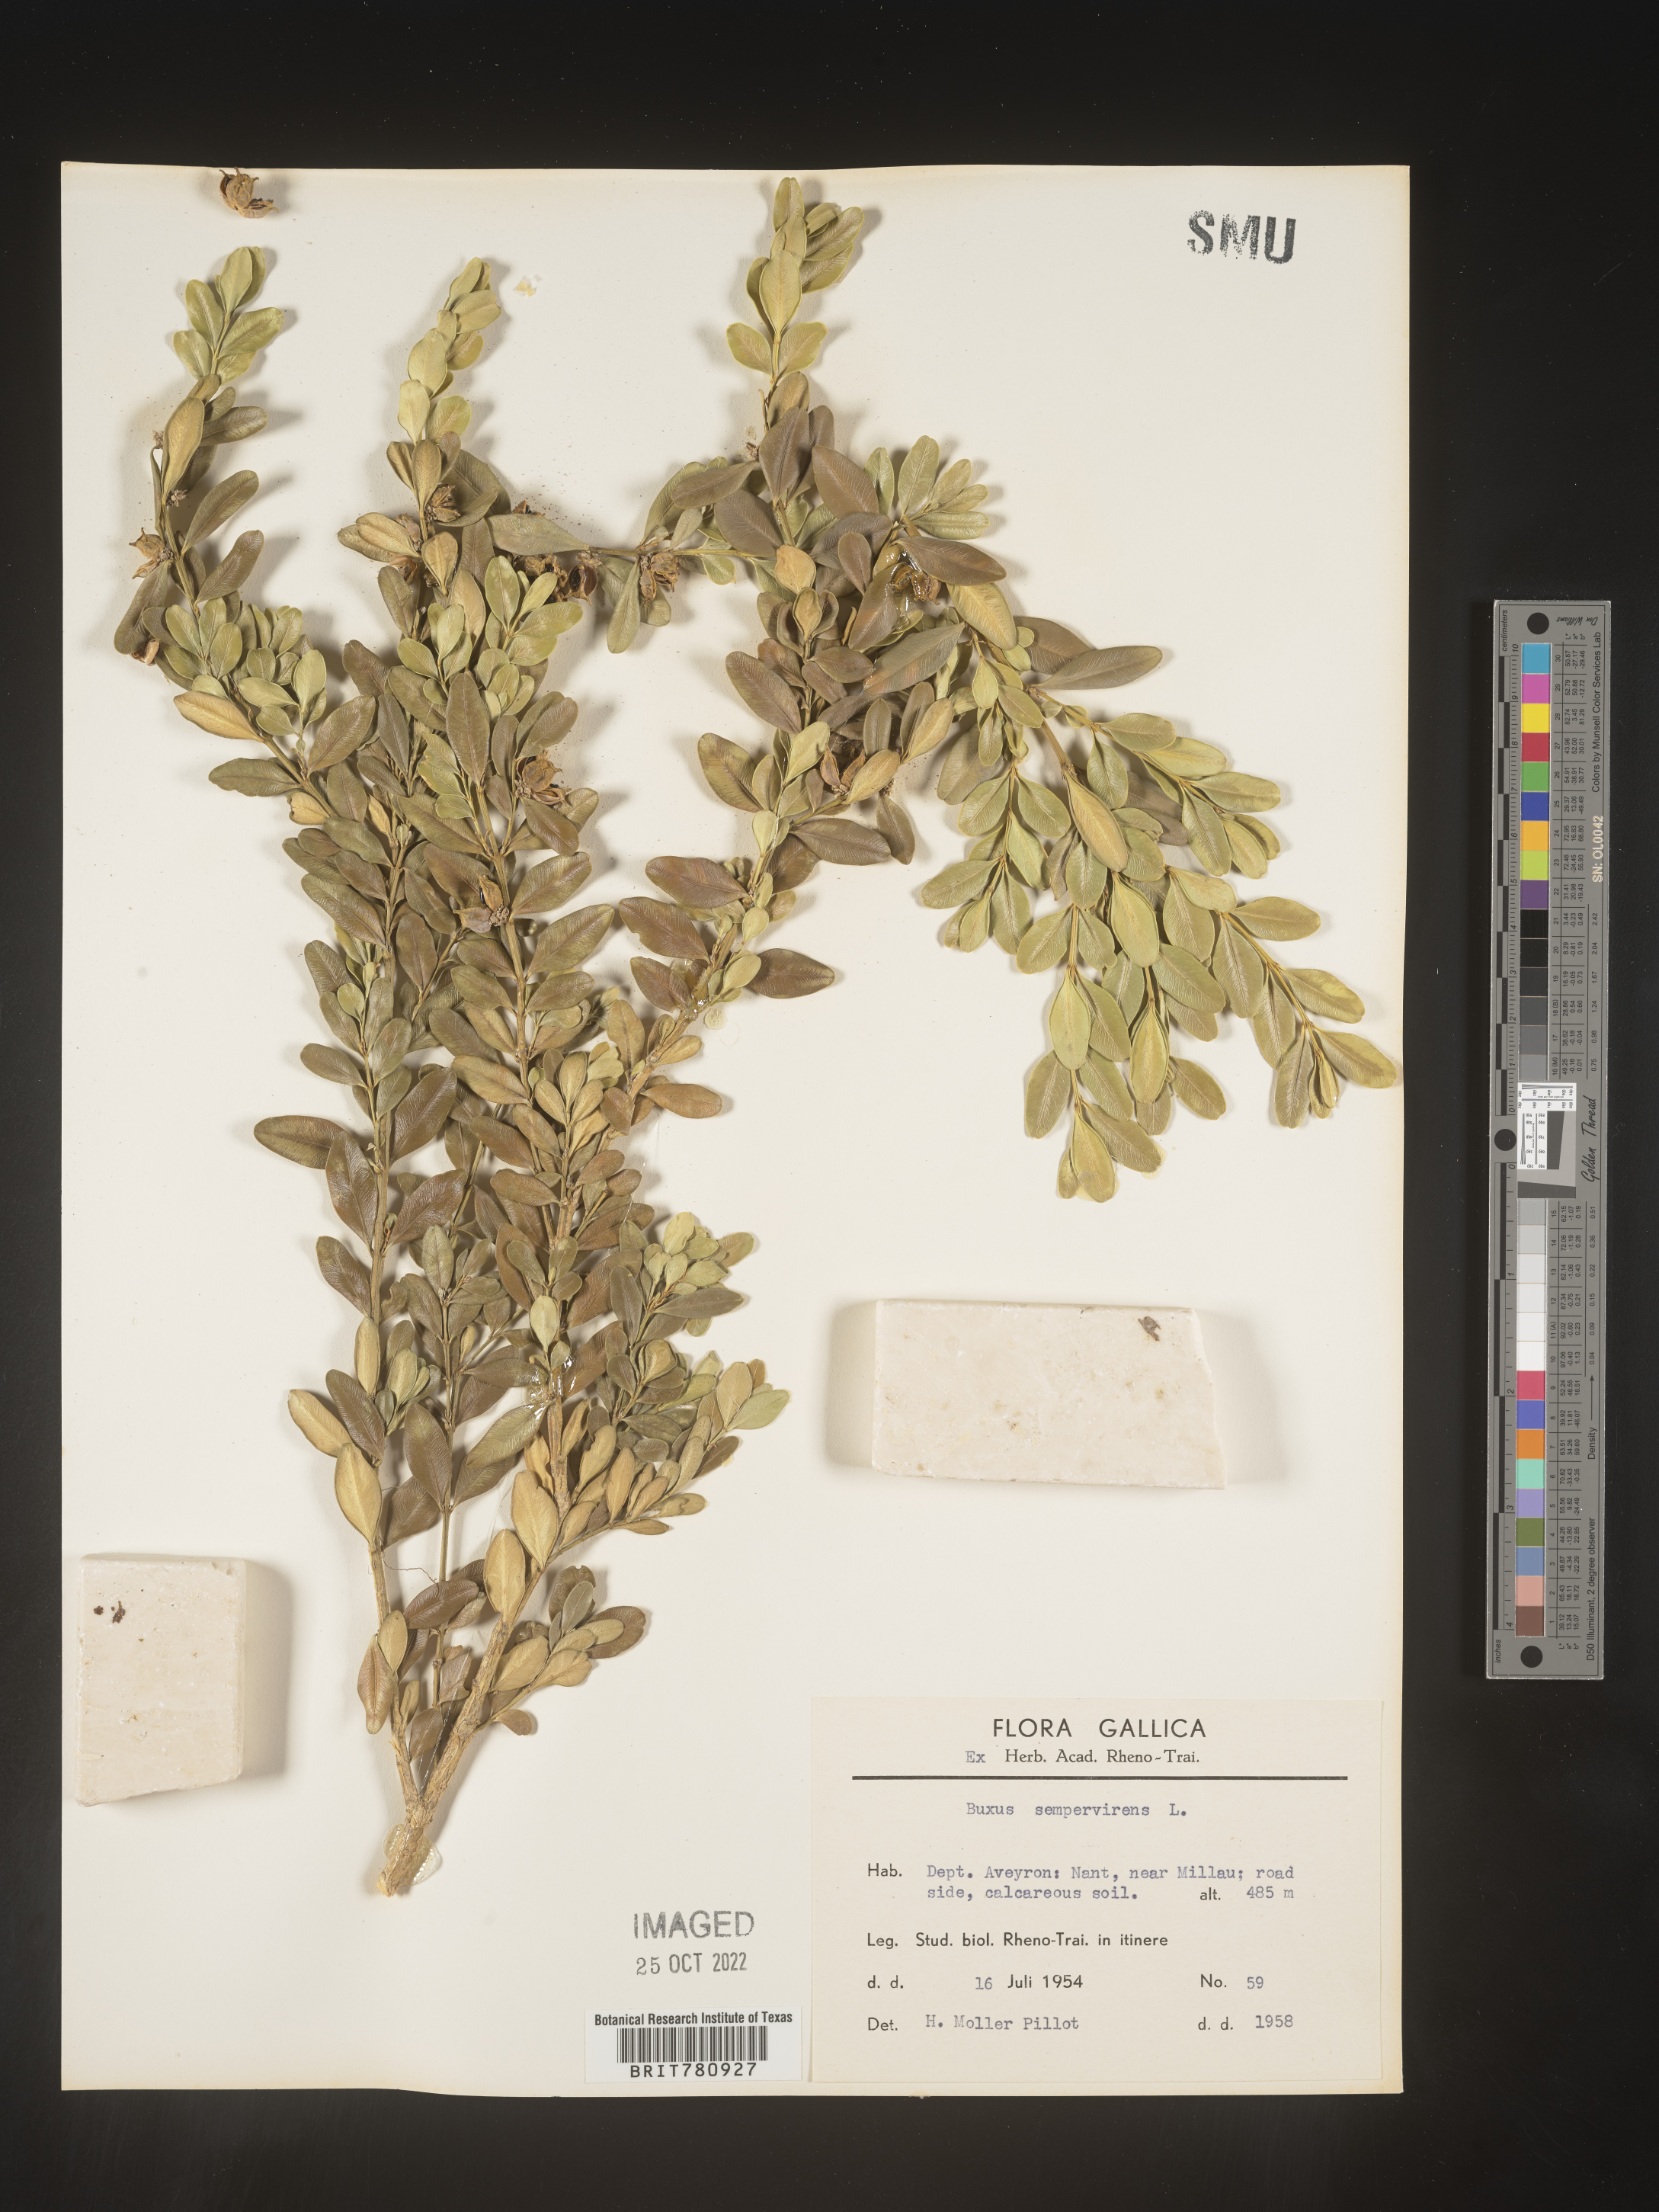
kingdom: Plantae
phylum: Tracheophyta
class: Magnoliopsida
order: Buxales
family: Buxaceae
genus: Buxus
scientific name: Buxus
